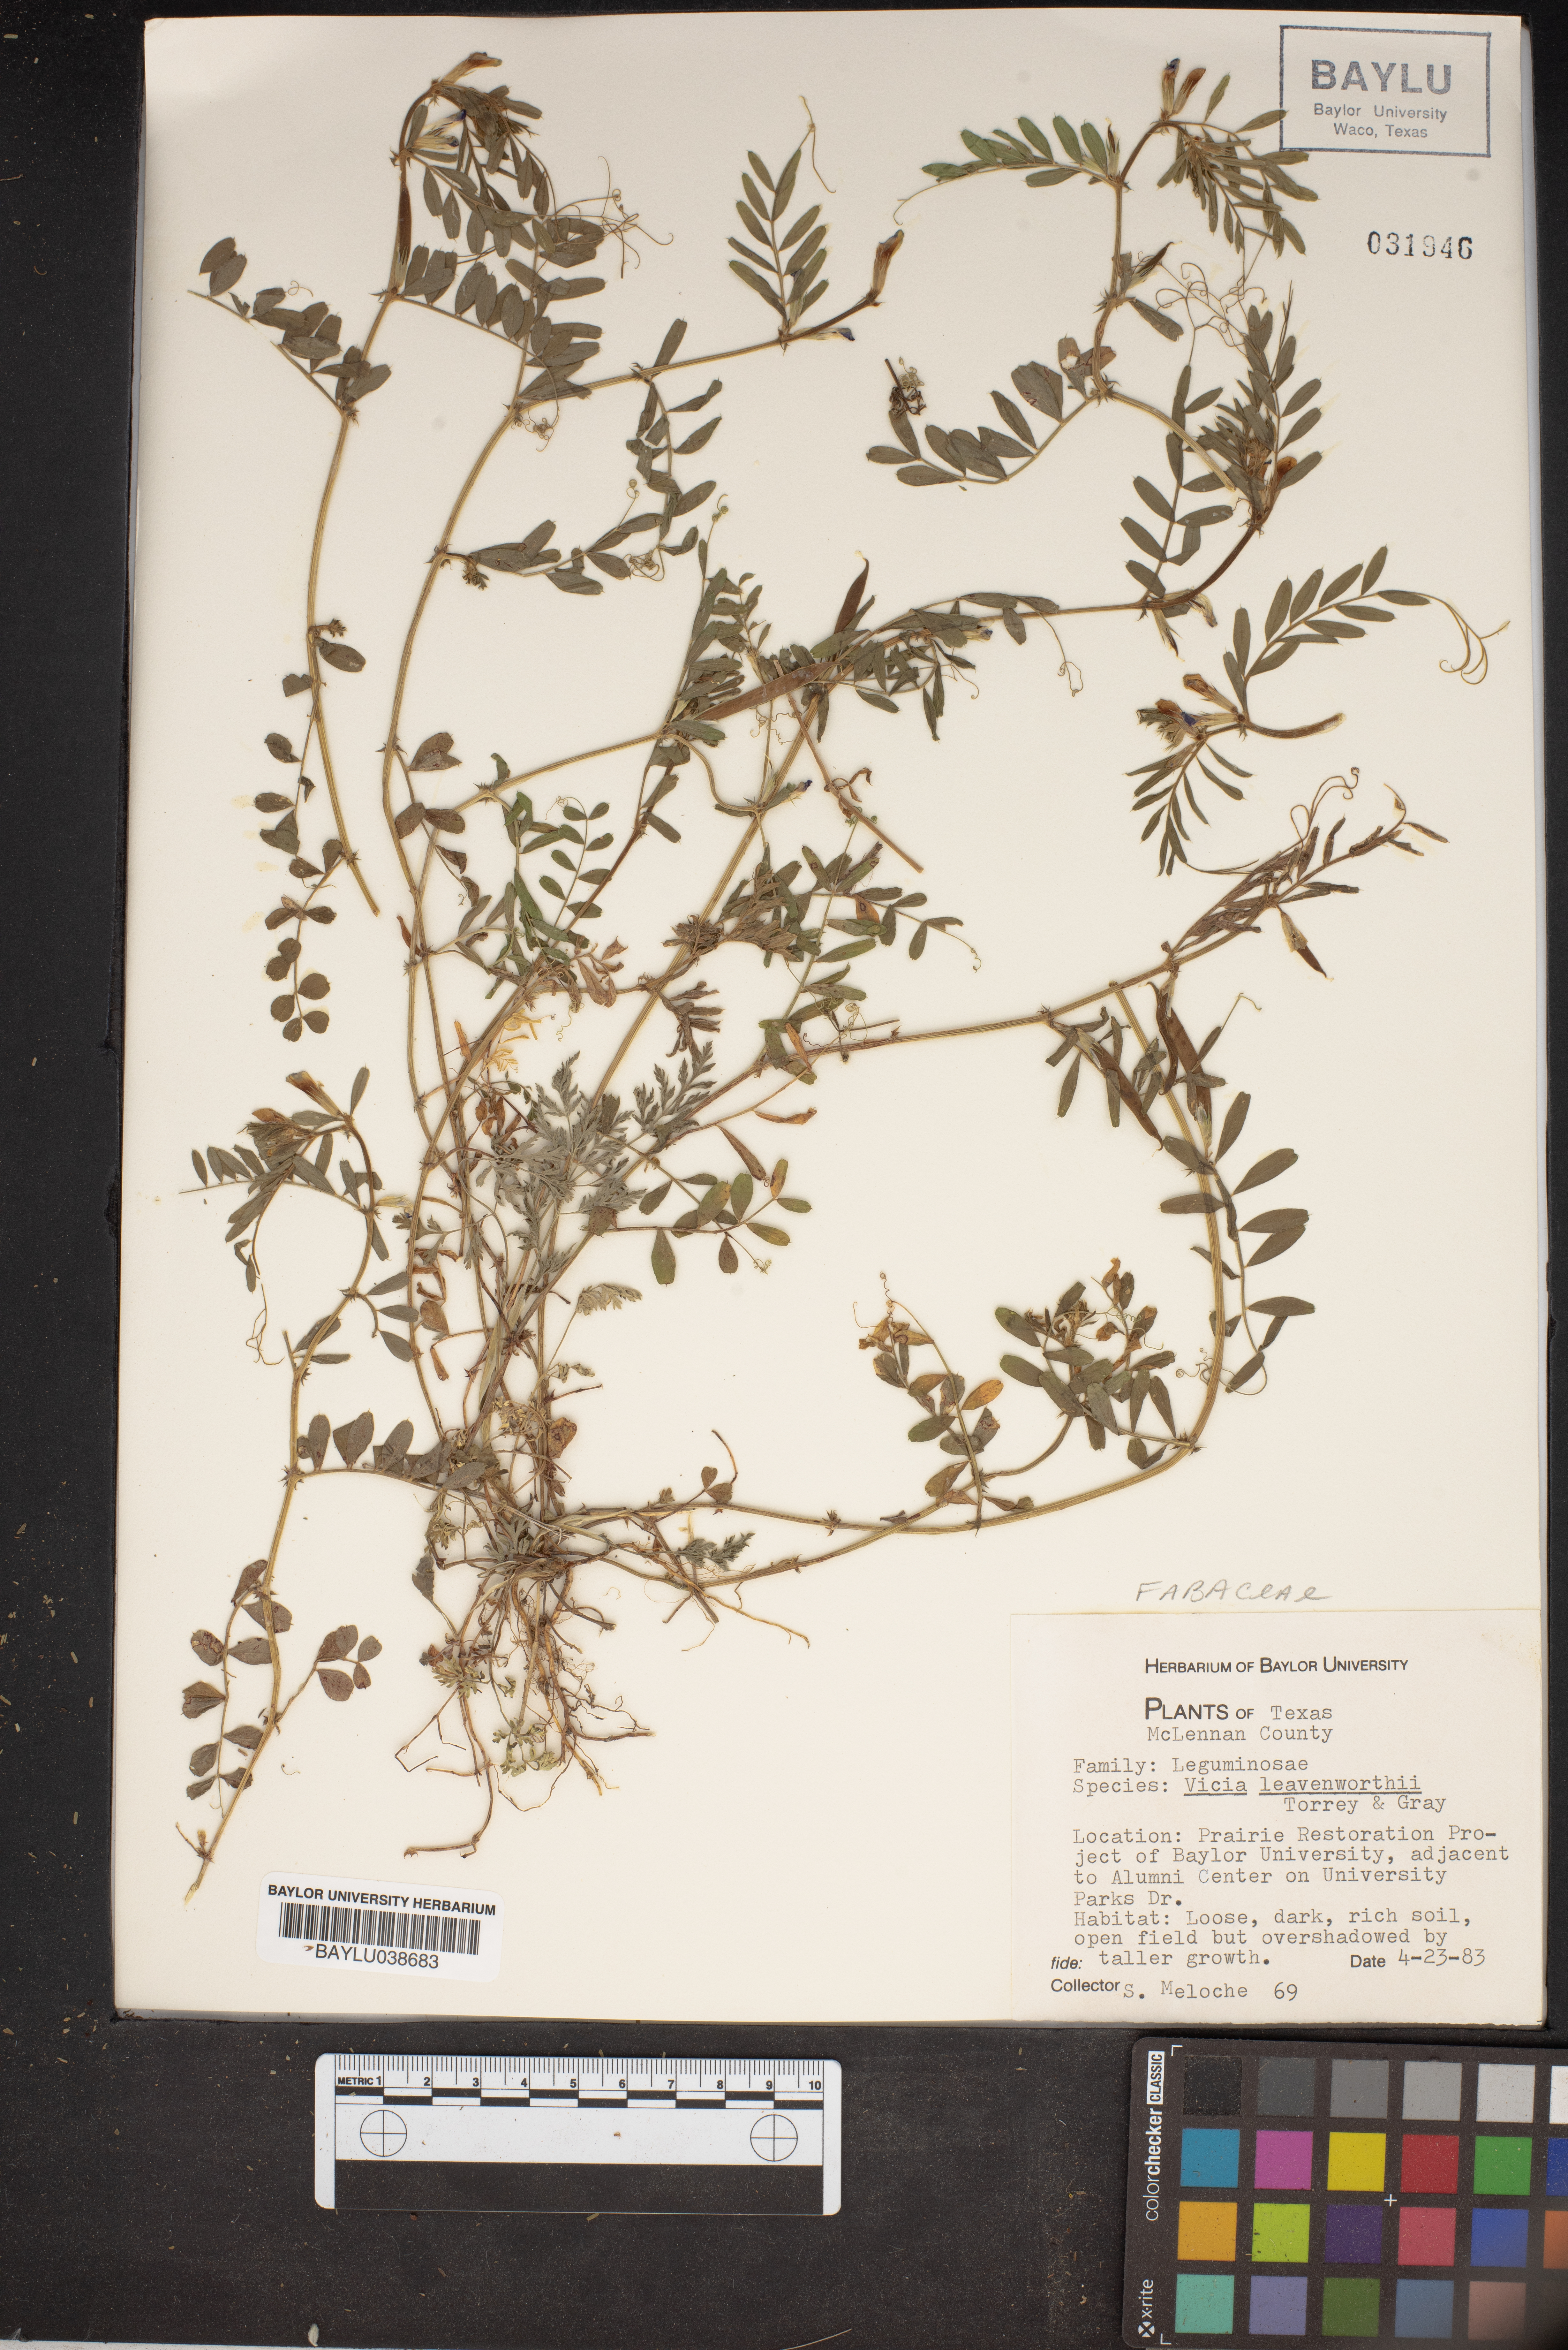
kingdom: Plantae
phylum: Tracheophyta
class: Magnoliopsida
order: Fabales
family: Fabaceae
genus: Vicia
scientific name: Vicia ludoviciana
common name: Louisiana vetch
